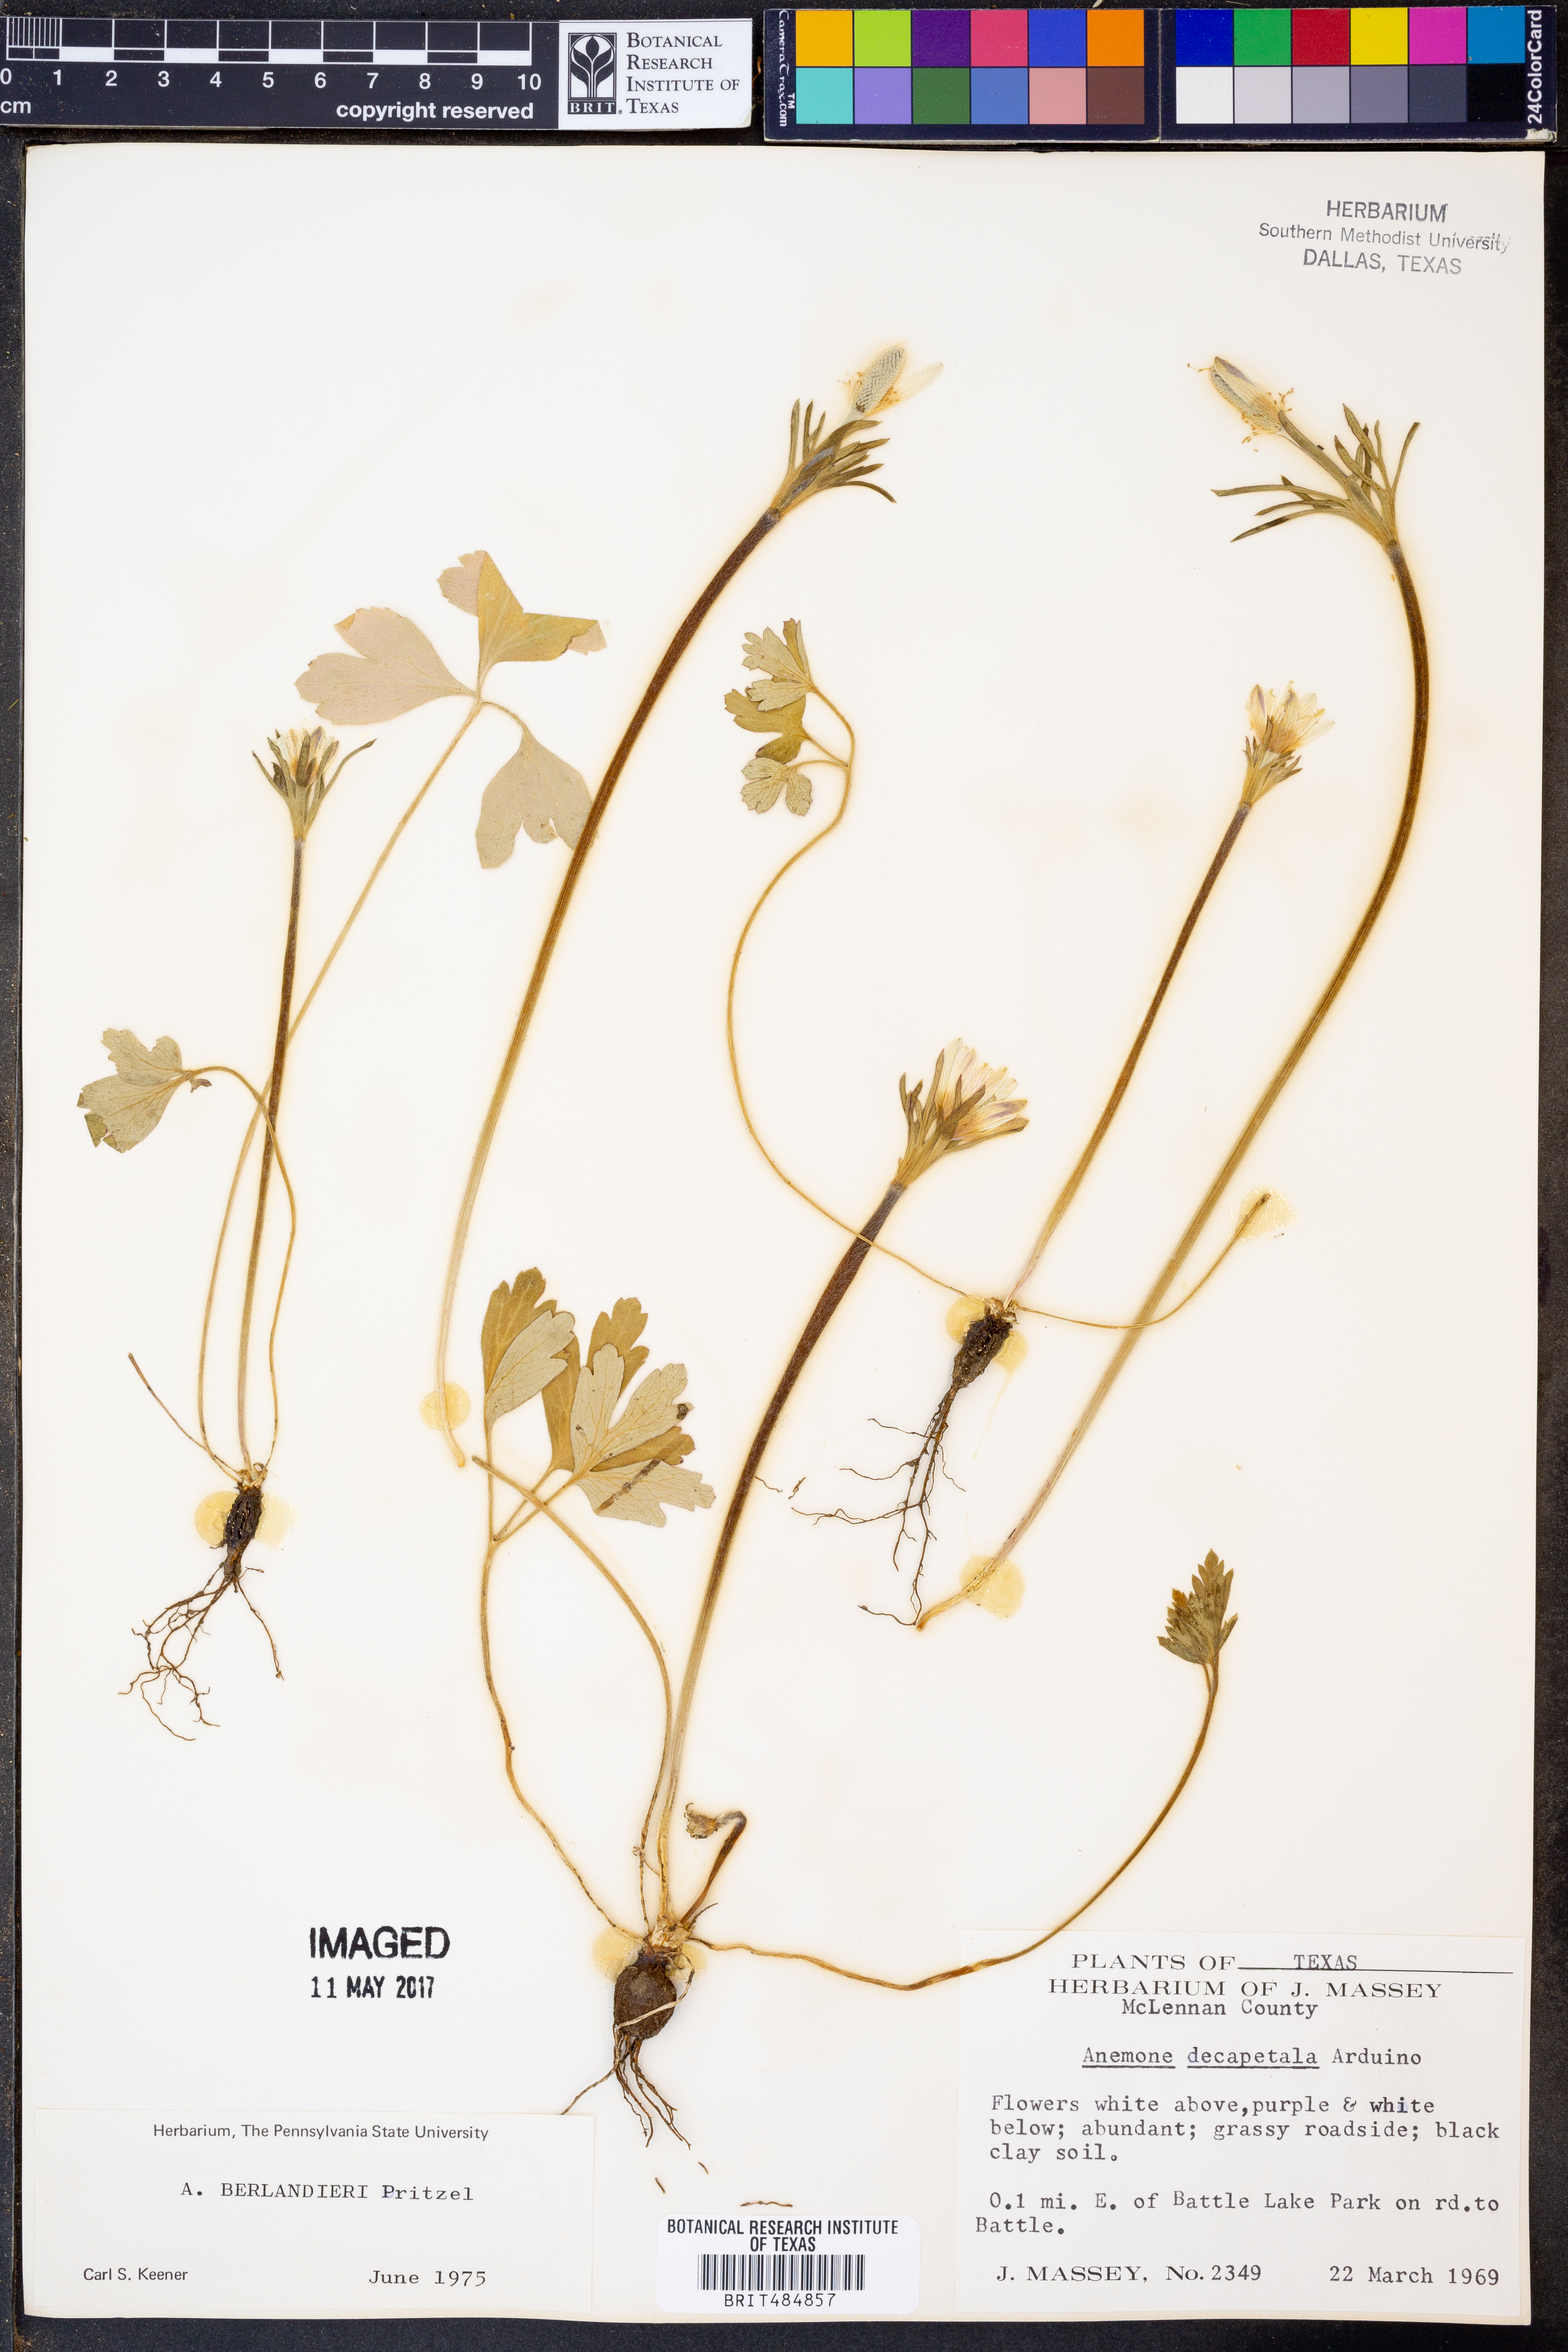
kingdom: Plantae
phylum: Tracheophyta
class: Magnoliopsida
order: Ranunculales
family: Ranunculaceae
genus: Anemone
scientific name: Anemone berlandieri
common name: Ten-petal anemone
